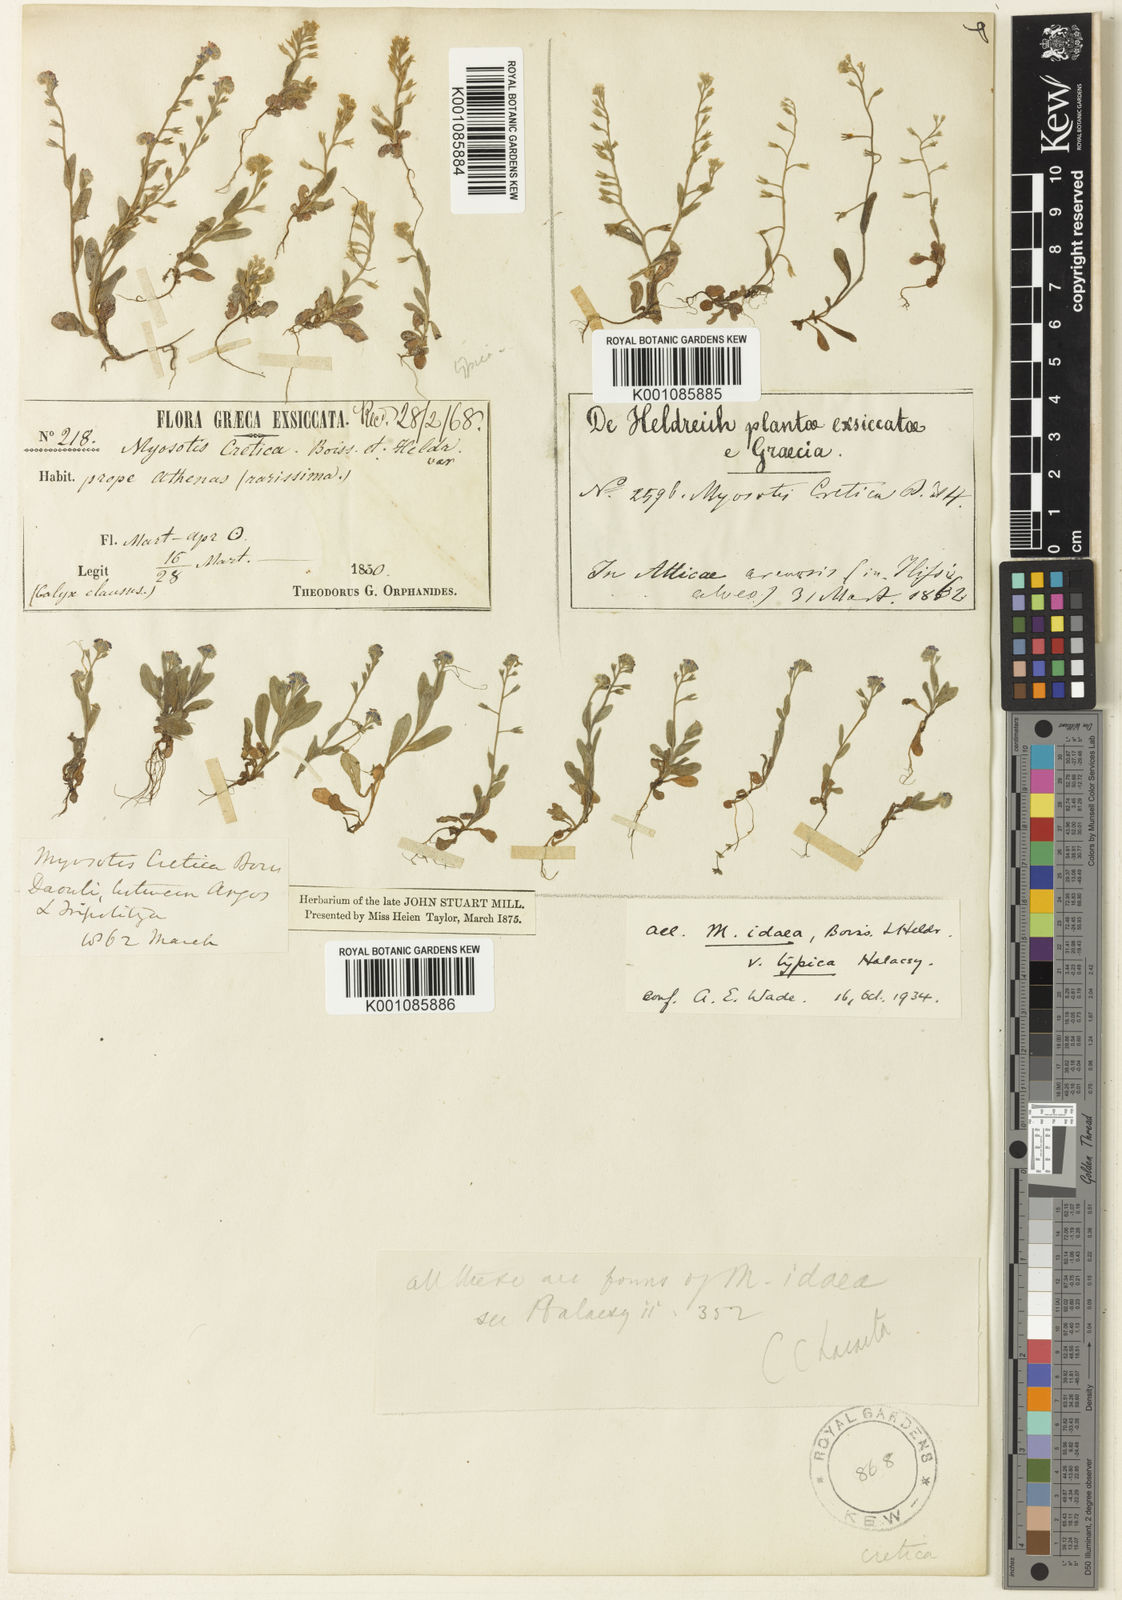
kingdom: Plantae
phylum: Tracheophyta
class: Magnoliopsida
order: Boraginales
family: Boraginaceae
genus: Myosotis
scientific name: Myosotis incrassata
